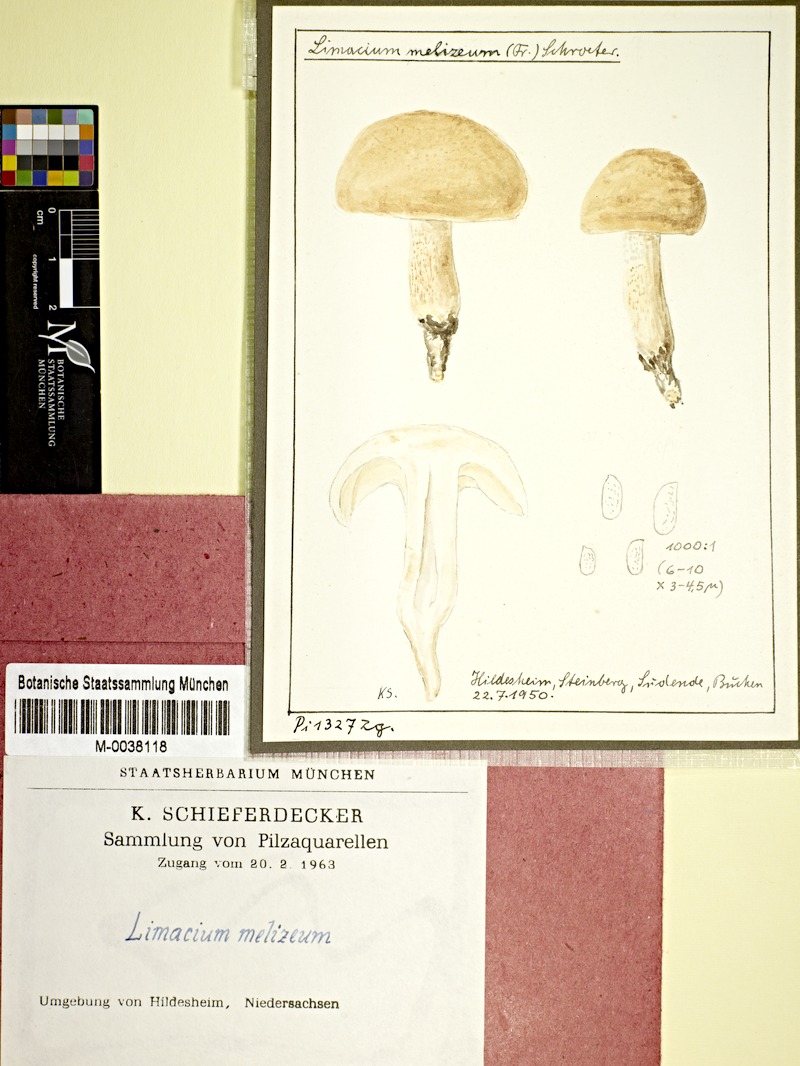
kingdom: Fungi
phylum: Basidiomycota
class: Agaricomycetes
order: Agaricales
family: Hygrophoraceae
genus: Hygrophorus
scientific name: Hygrophorus
